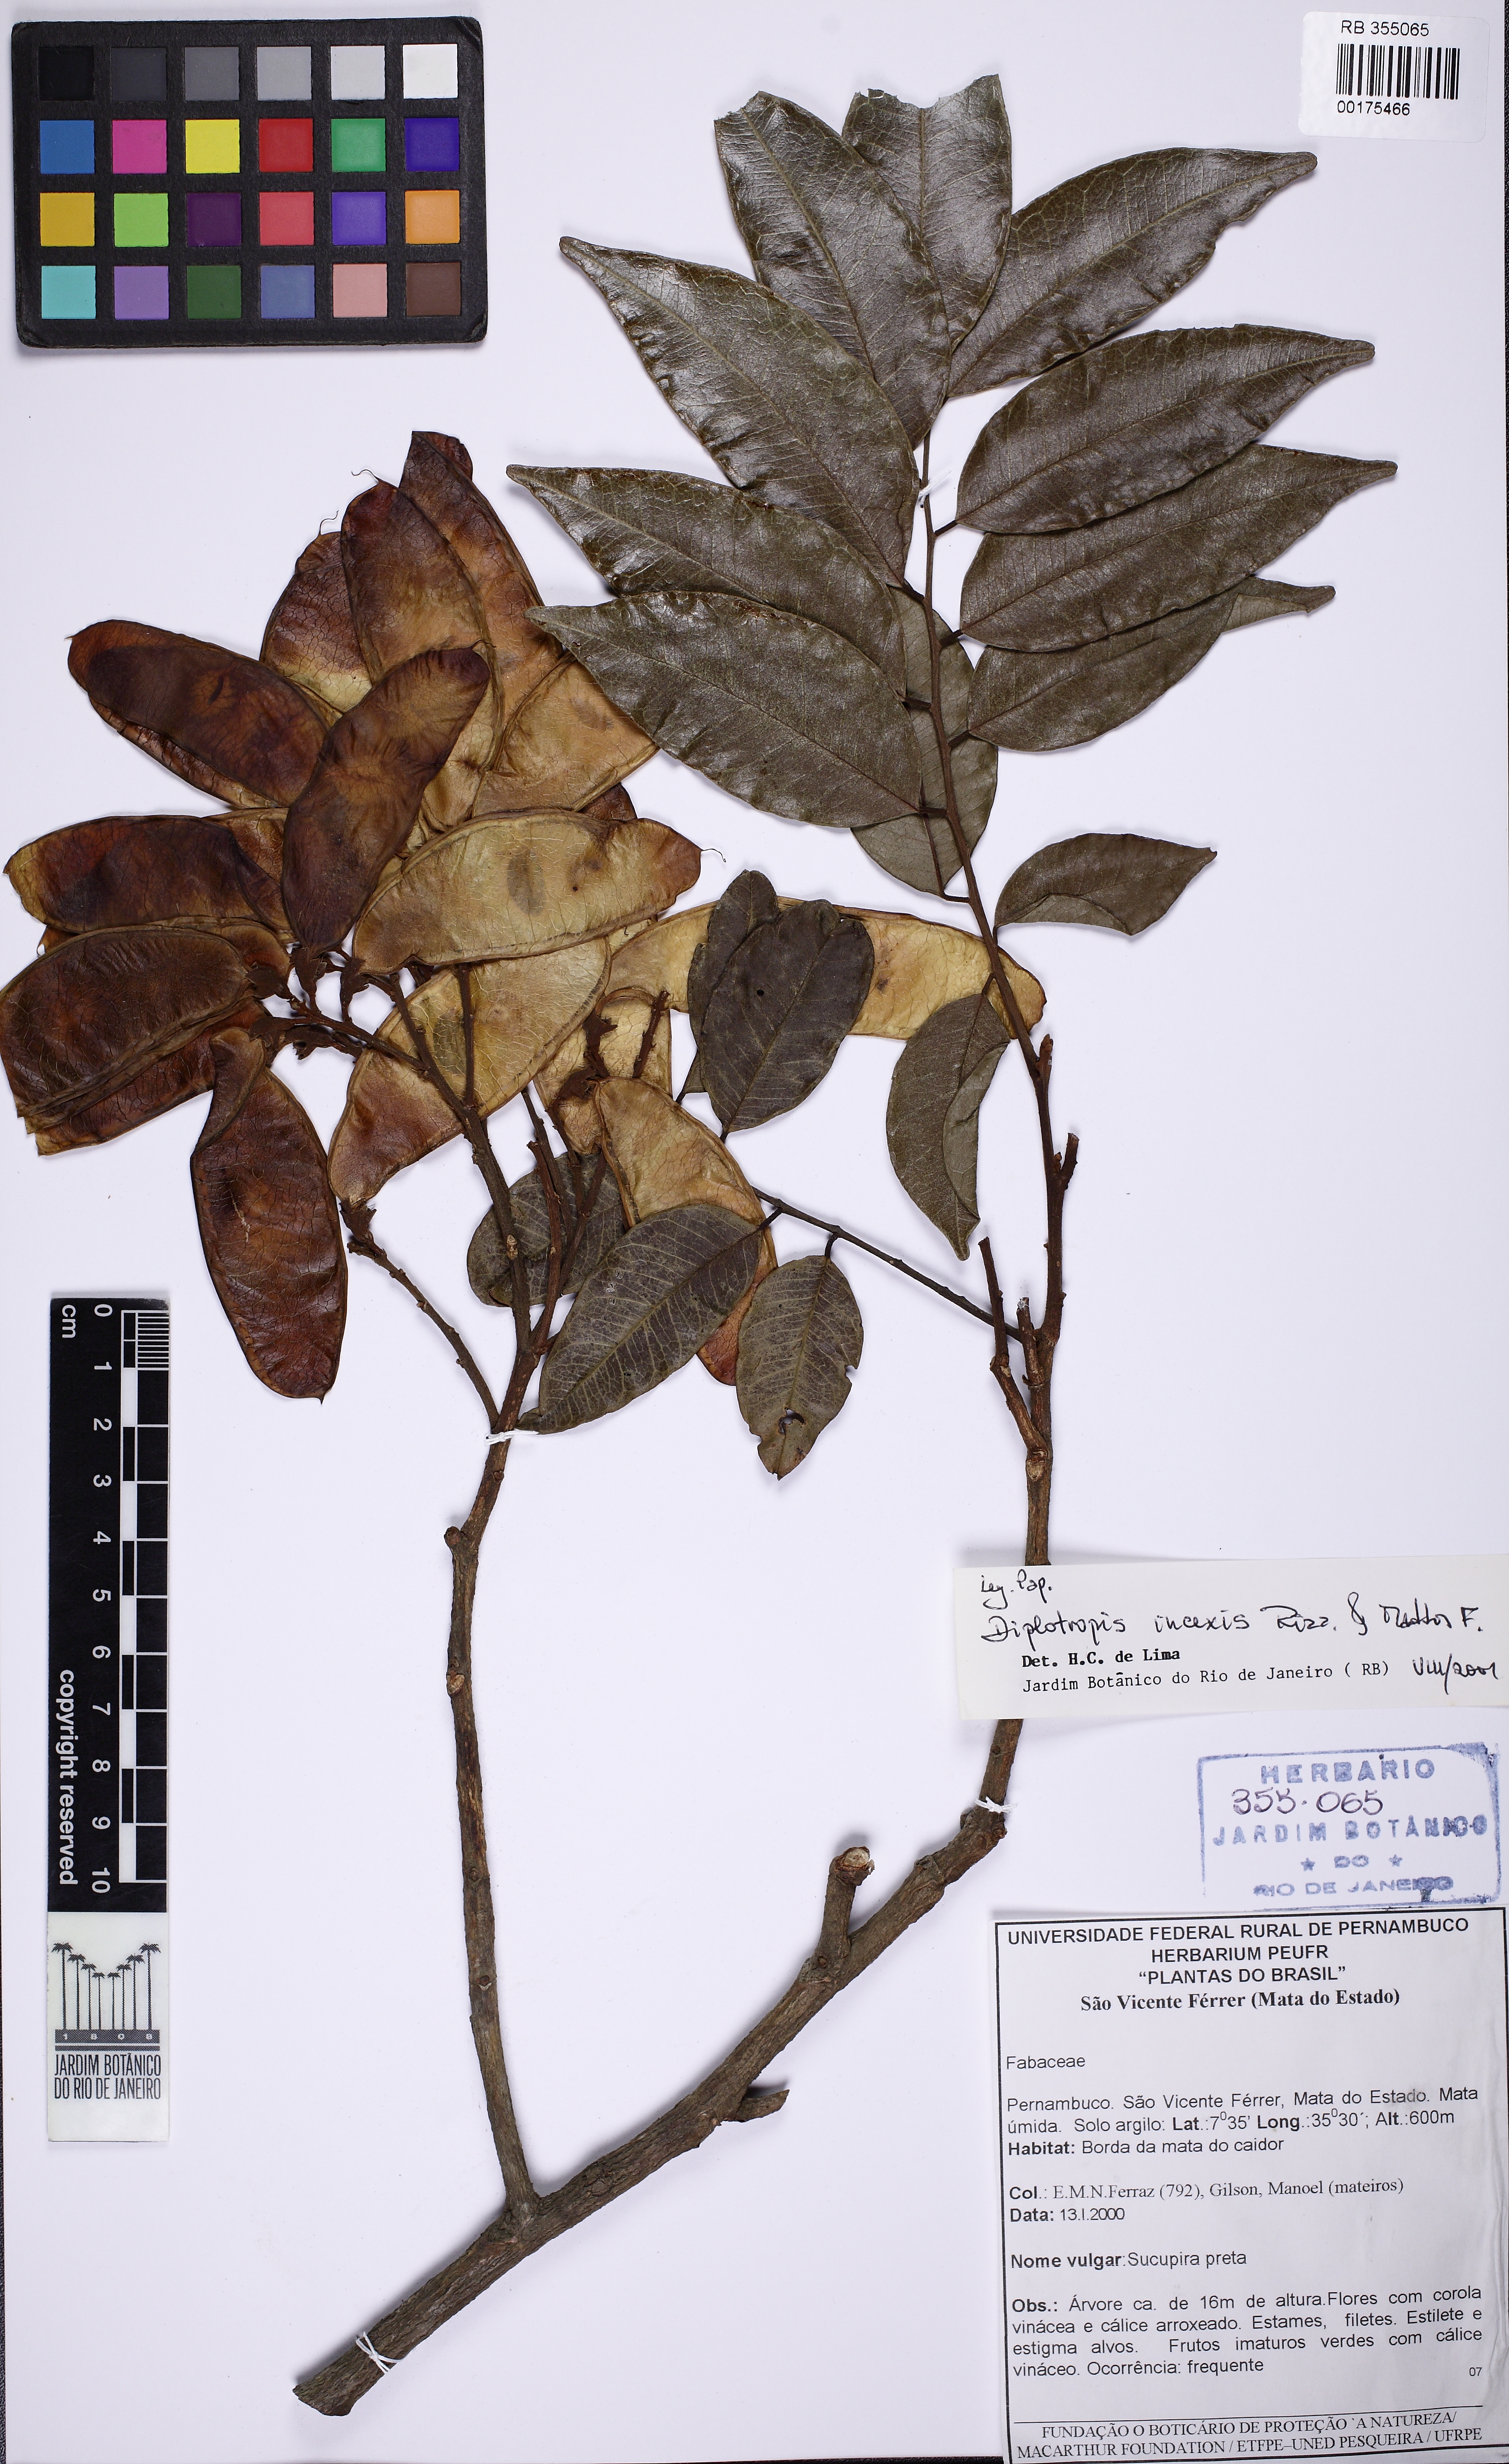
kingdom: Plantae
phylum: Tracheophyta
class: Magnoliopsida
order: Fabales
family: Fabaceae
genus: Diplotropis
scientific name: Diplotropis incexis
